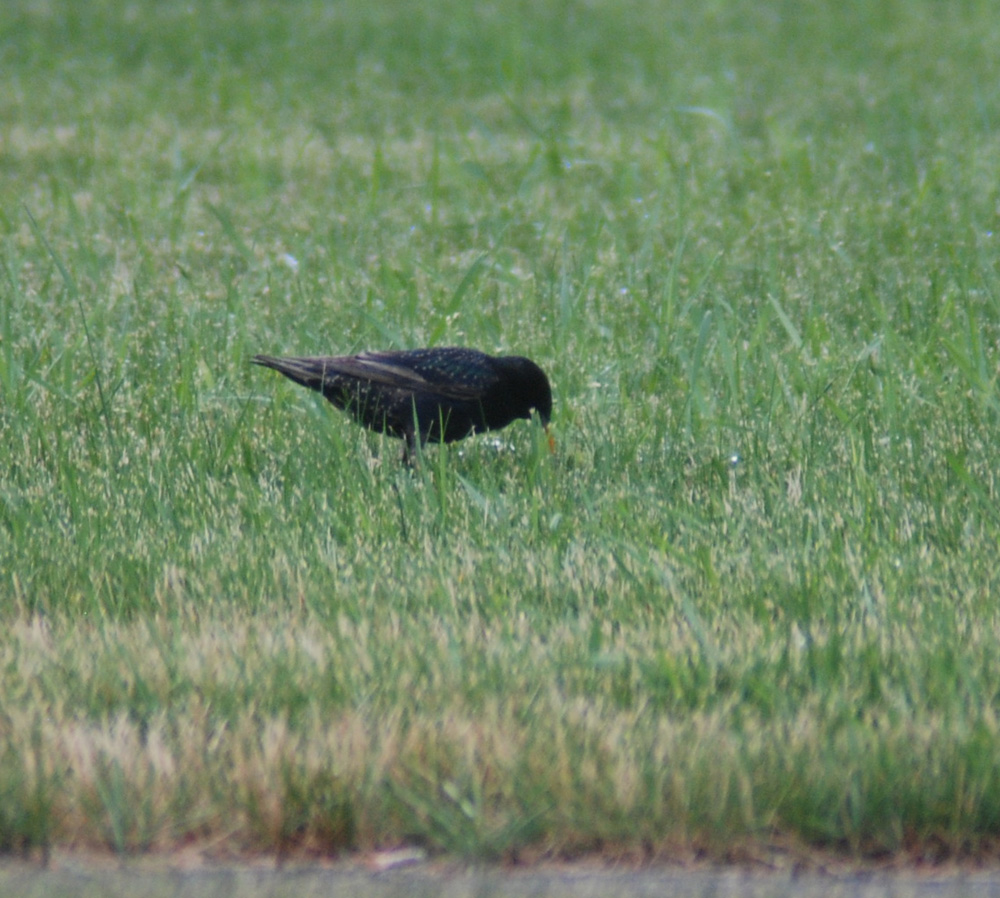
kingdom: Animalia
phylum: Chordata
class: Aves
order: Passeriformes
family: Sturnidae
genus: Sturnus
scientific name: Sturnus vulgaris
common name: Common starling
